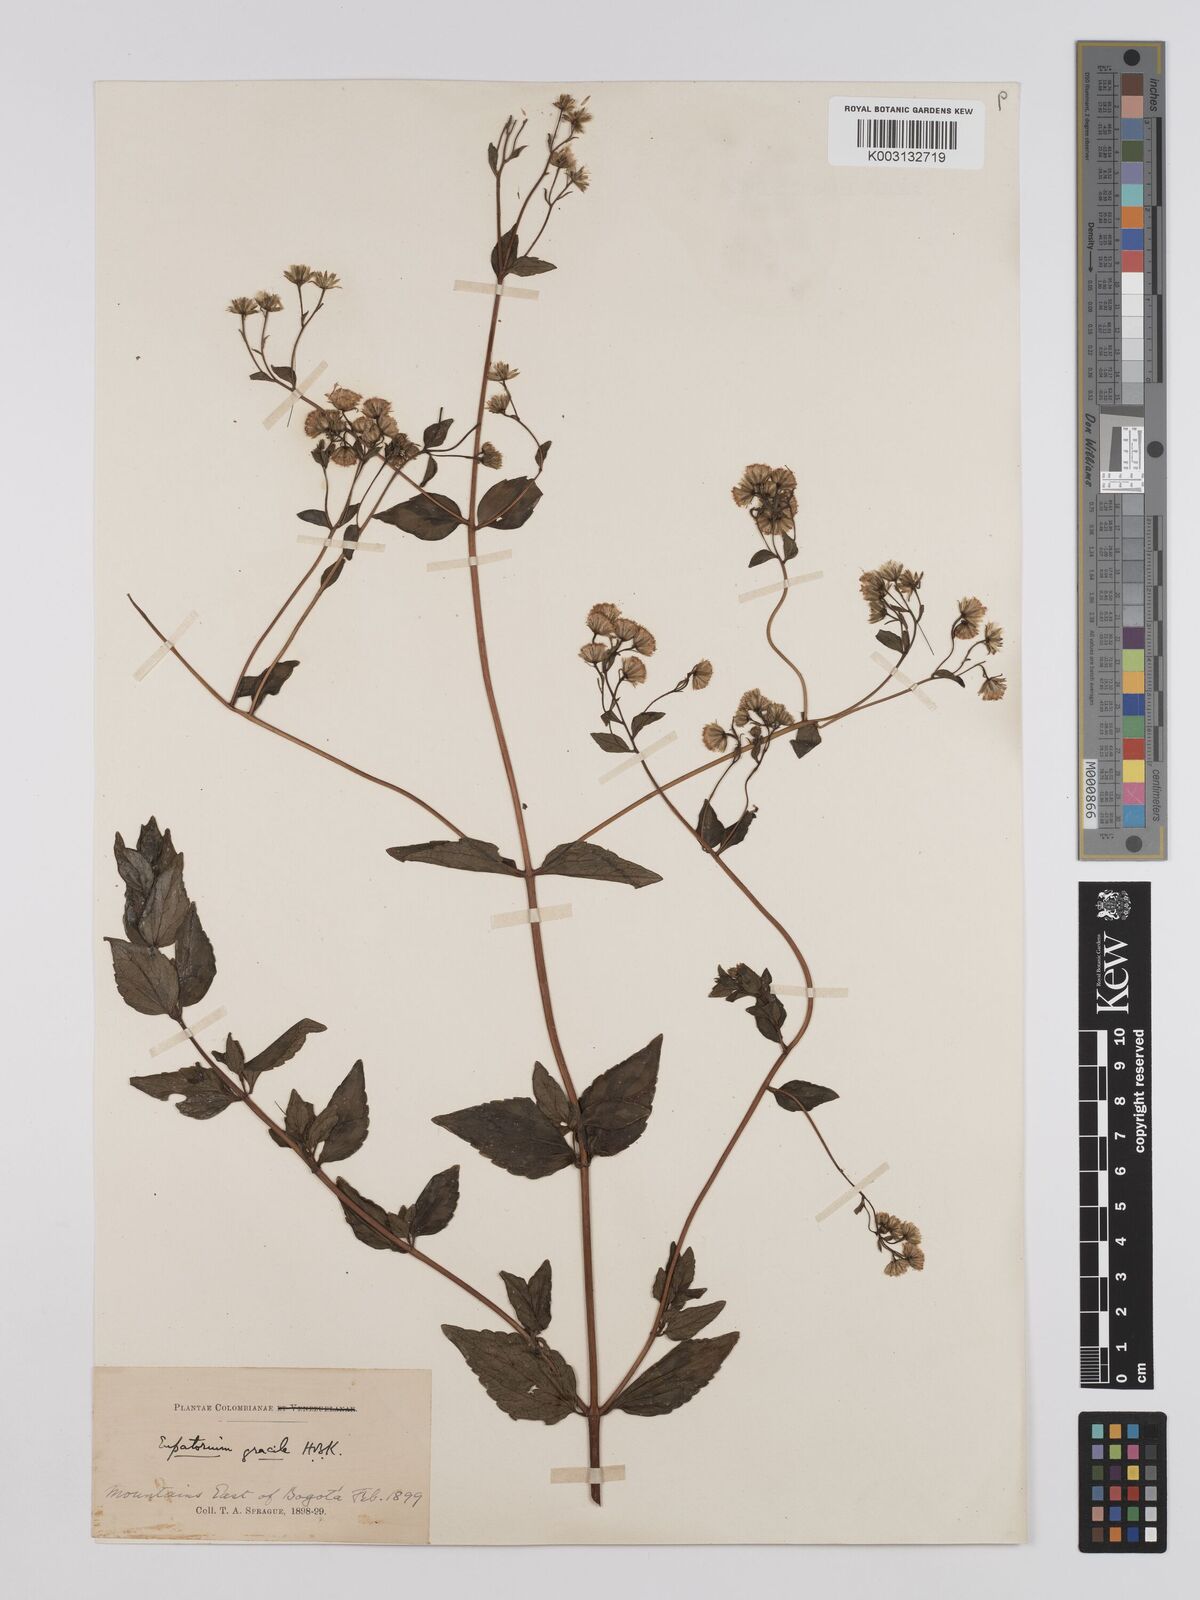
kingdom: Plantae
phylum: Tracheophyta
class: Magnoliopsida
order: Asterales
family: Asteraceae
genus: Ageratina
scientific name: Ageratina gracilis
